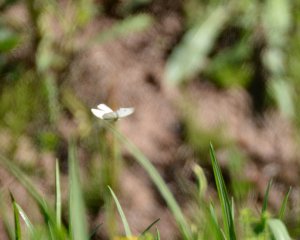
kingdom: Animalia
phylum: Arthropoda
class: Insecta
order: Lepidoptera
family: Pieridae
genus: Pieris
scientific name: Pieris rapae
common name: Cabbage White
